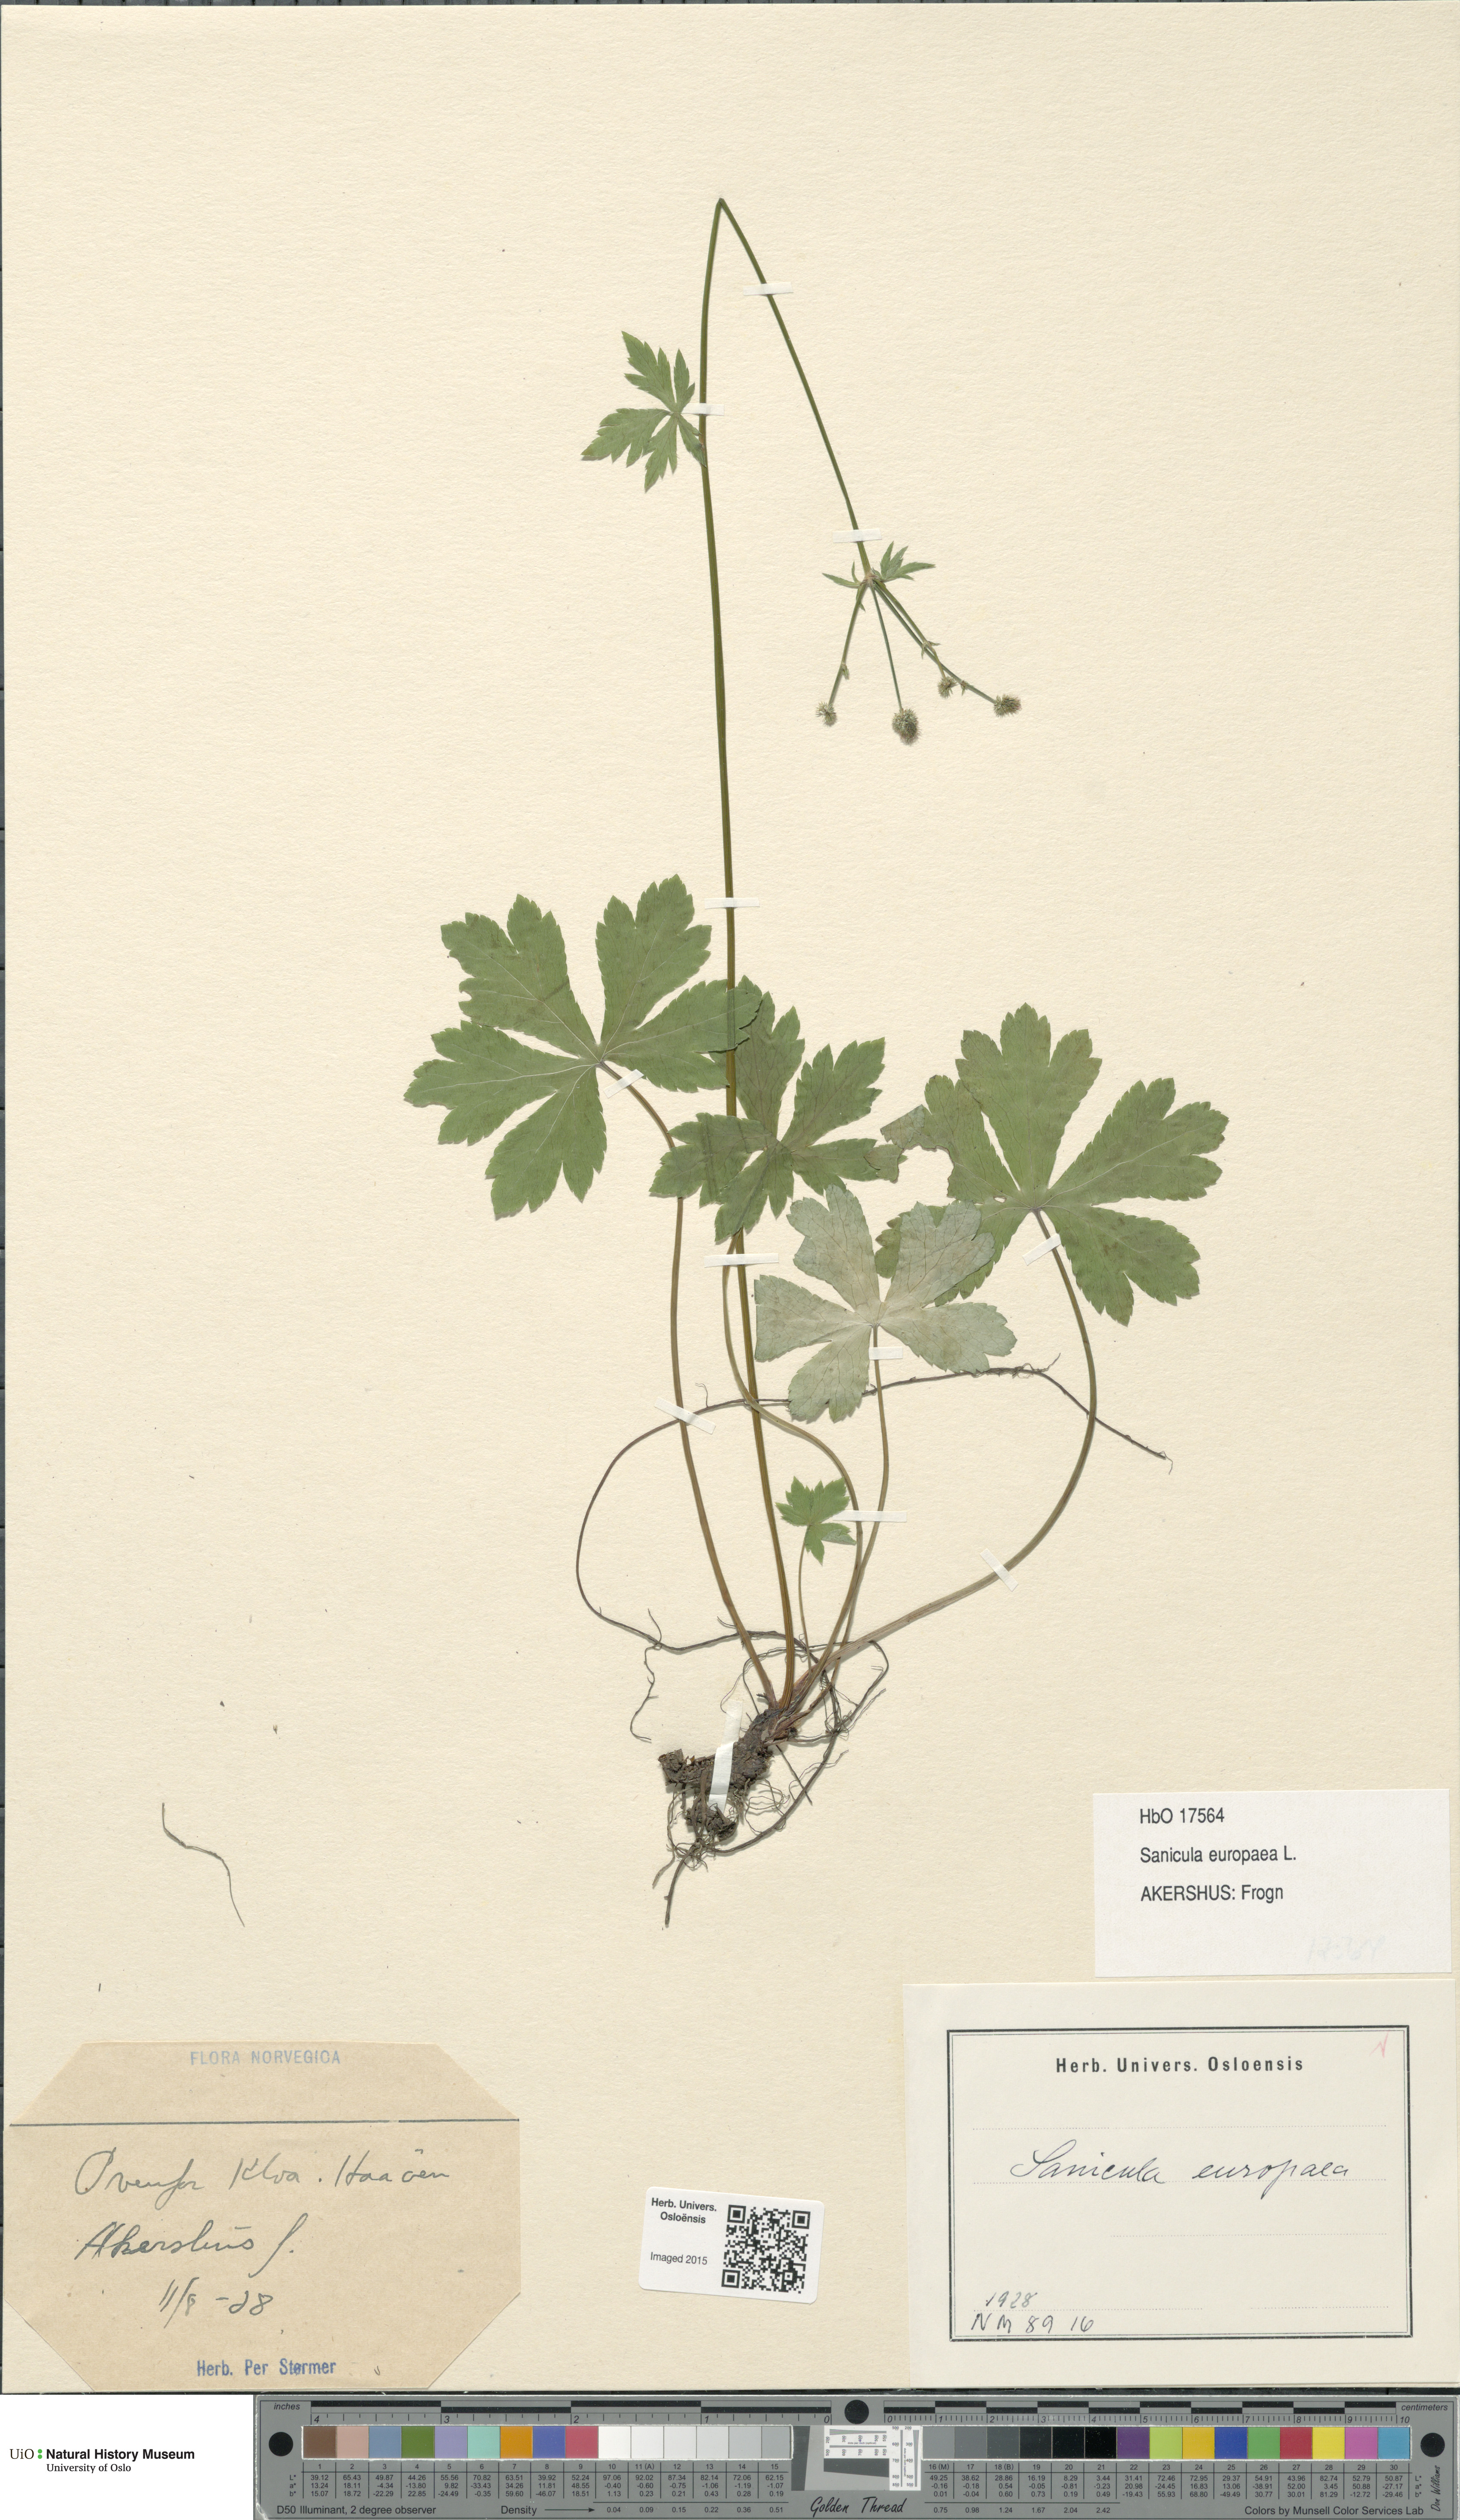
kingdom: Plantae
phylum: Tracheophyta
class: Magnoliopsida
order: Apiales
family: Apiaceae
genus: Sanicula
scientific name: Sanicula europaea
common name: Sanicle
